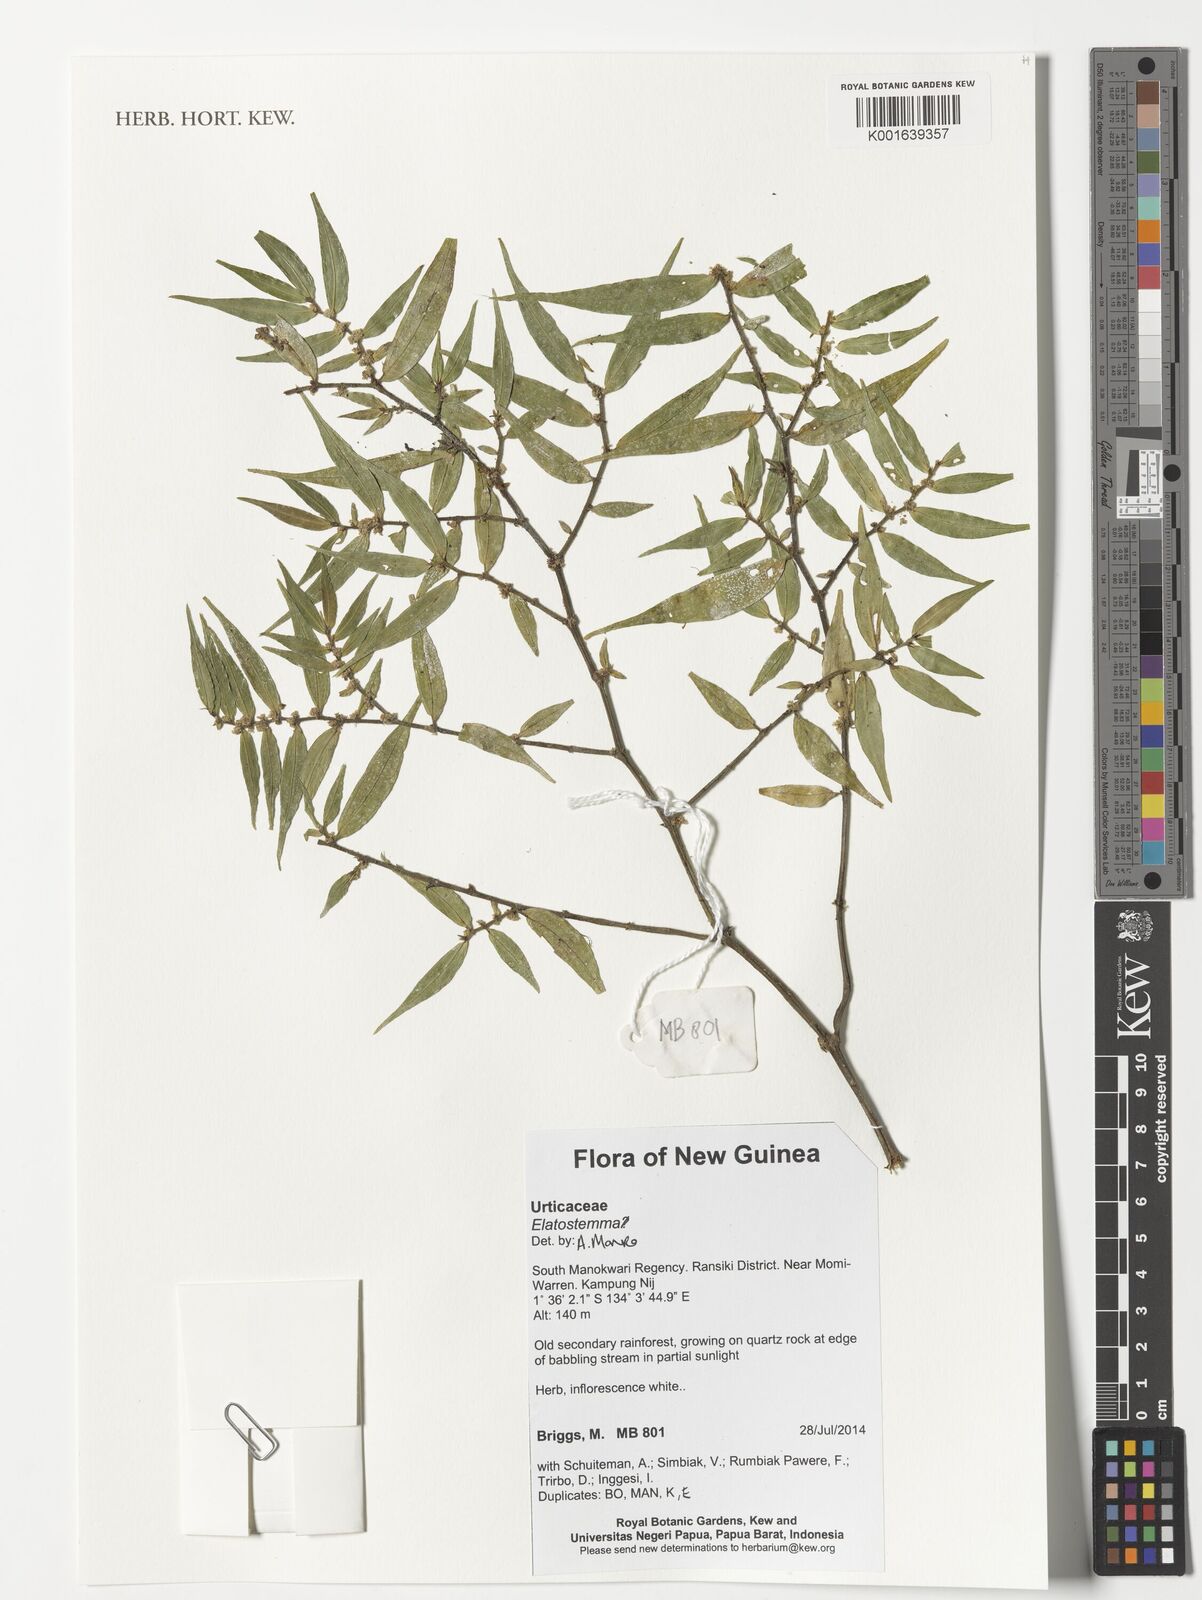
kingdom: Plantae
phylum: Tracheophyta
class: Magnoliopsida
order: Rosales
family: Urticaceae
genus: Elatostema
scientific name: Elatostema
